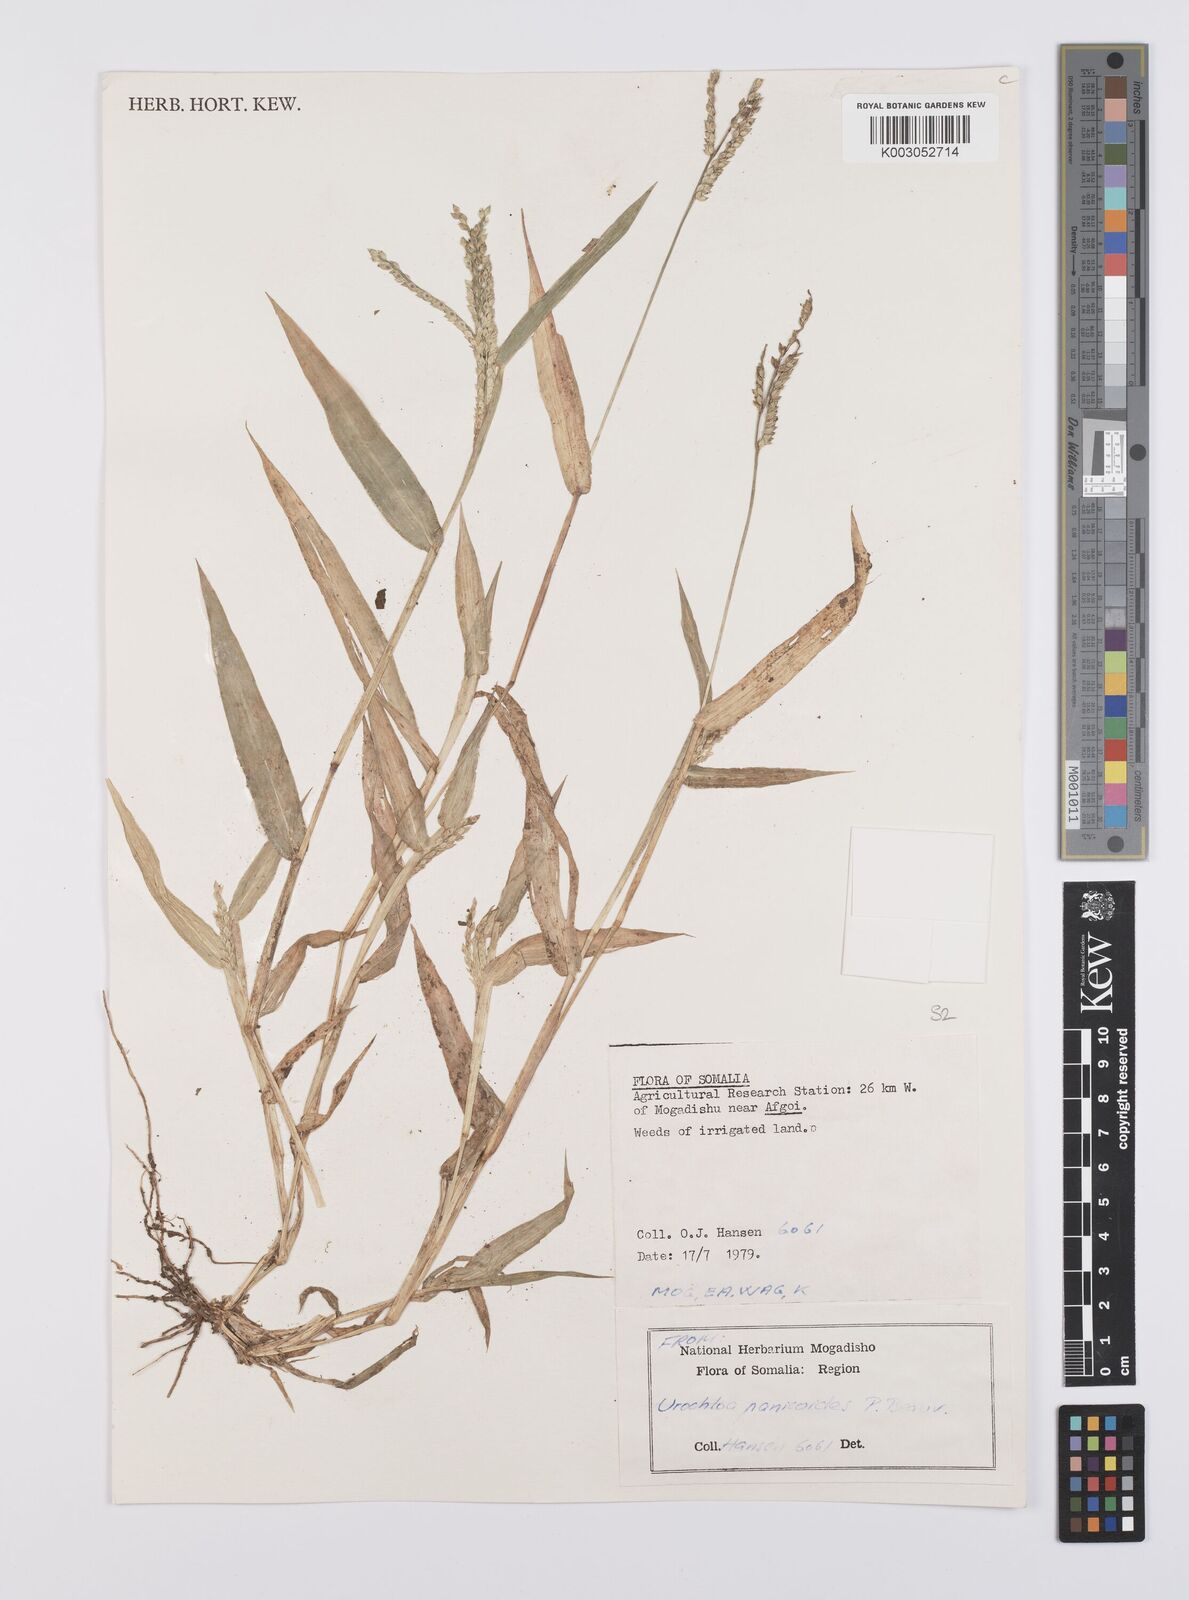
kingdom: Plantae
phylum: Tracheophyta
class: Liliopsida
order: Poales
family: Poaceae
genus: Urochloa
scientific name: Urochloa panicoides
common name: Sharp-flowered signal-grass
